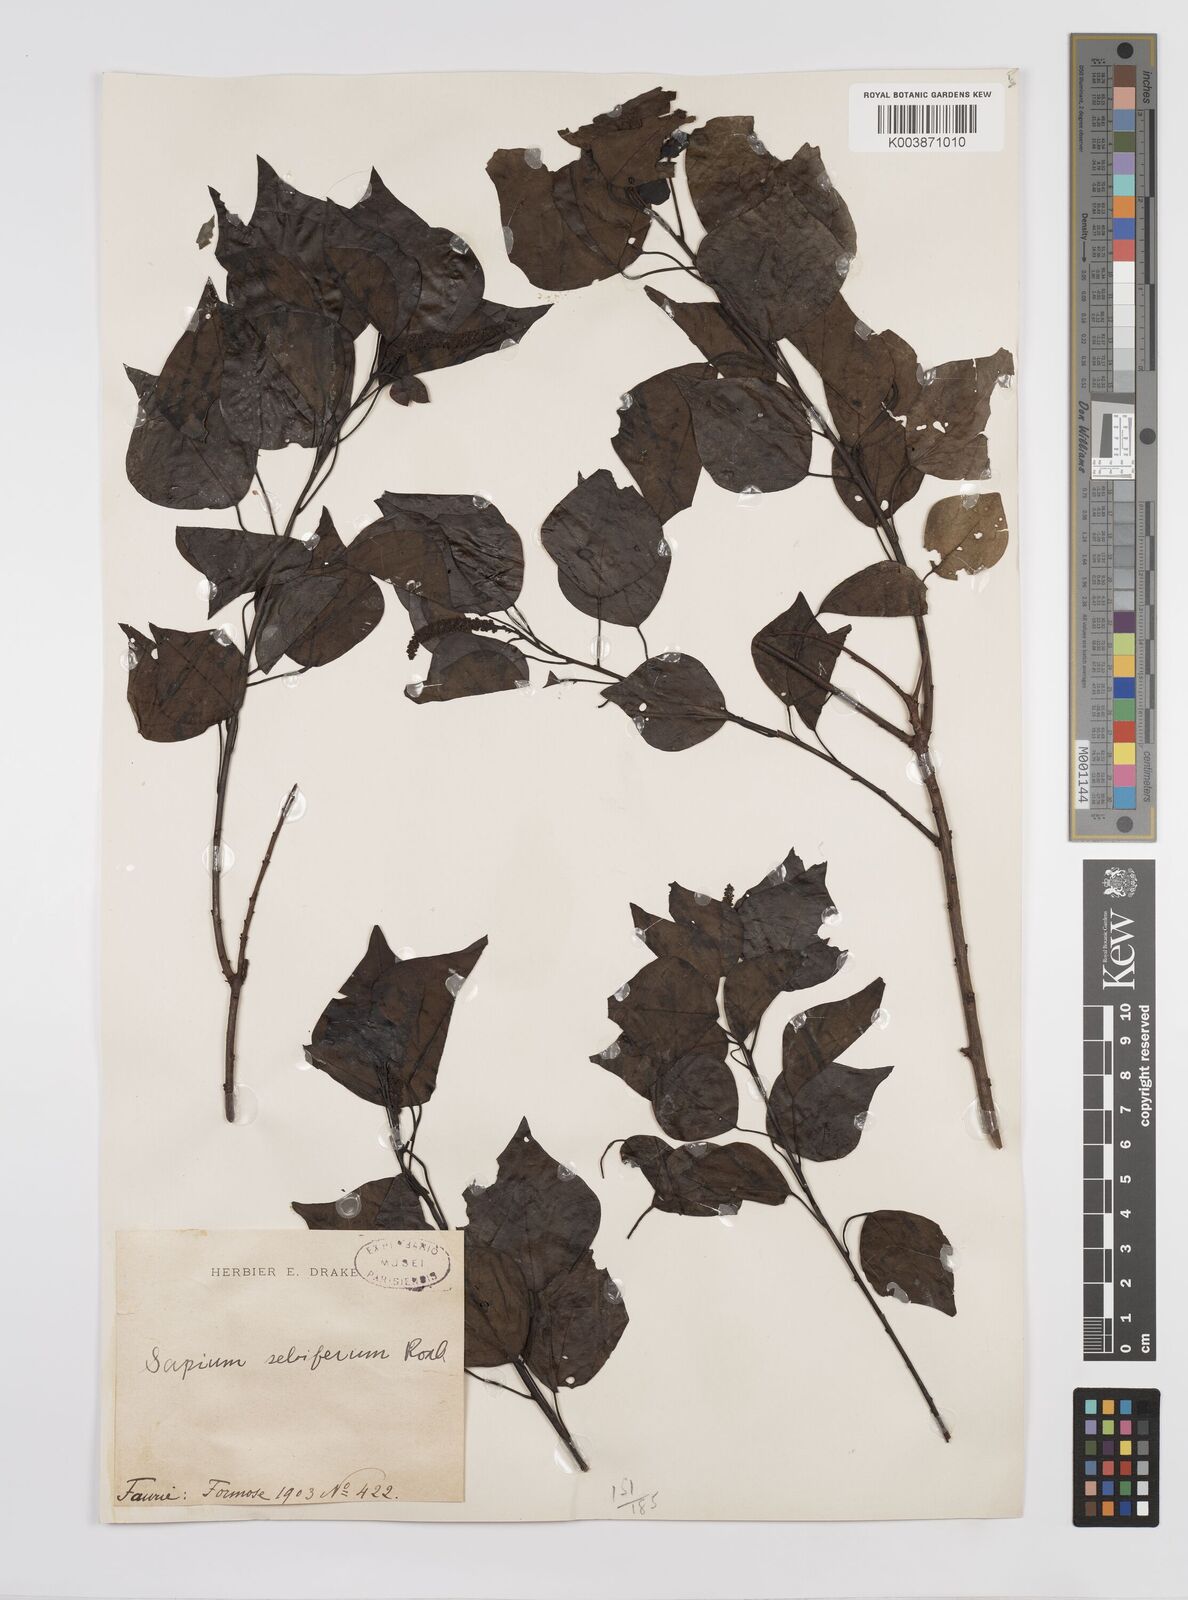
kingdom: Plantae
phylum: Tracheophyta
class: Magnoliopsida
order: Malpighiales
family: Euphorbiaceae
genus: Triadica
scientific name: Triadica sebifera
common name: Chinese tallow
